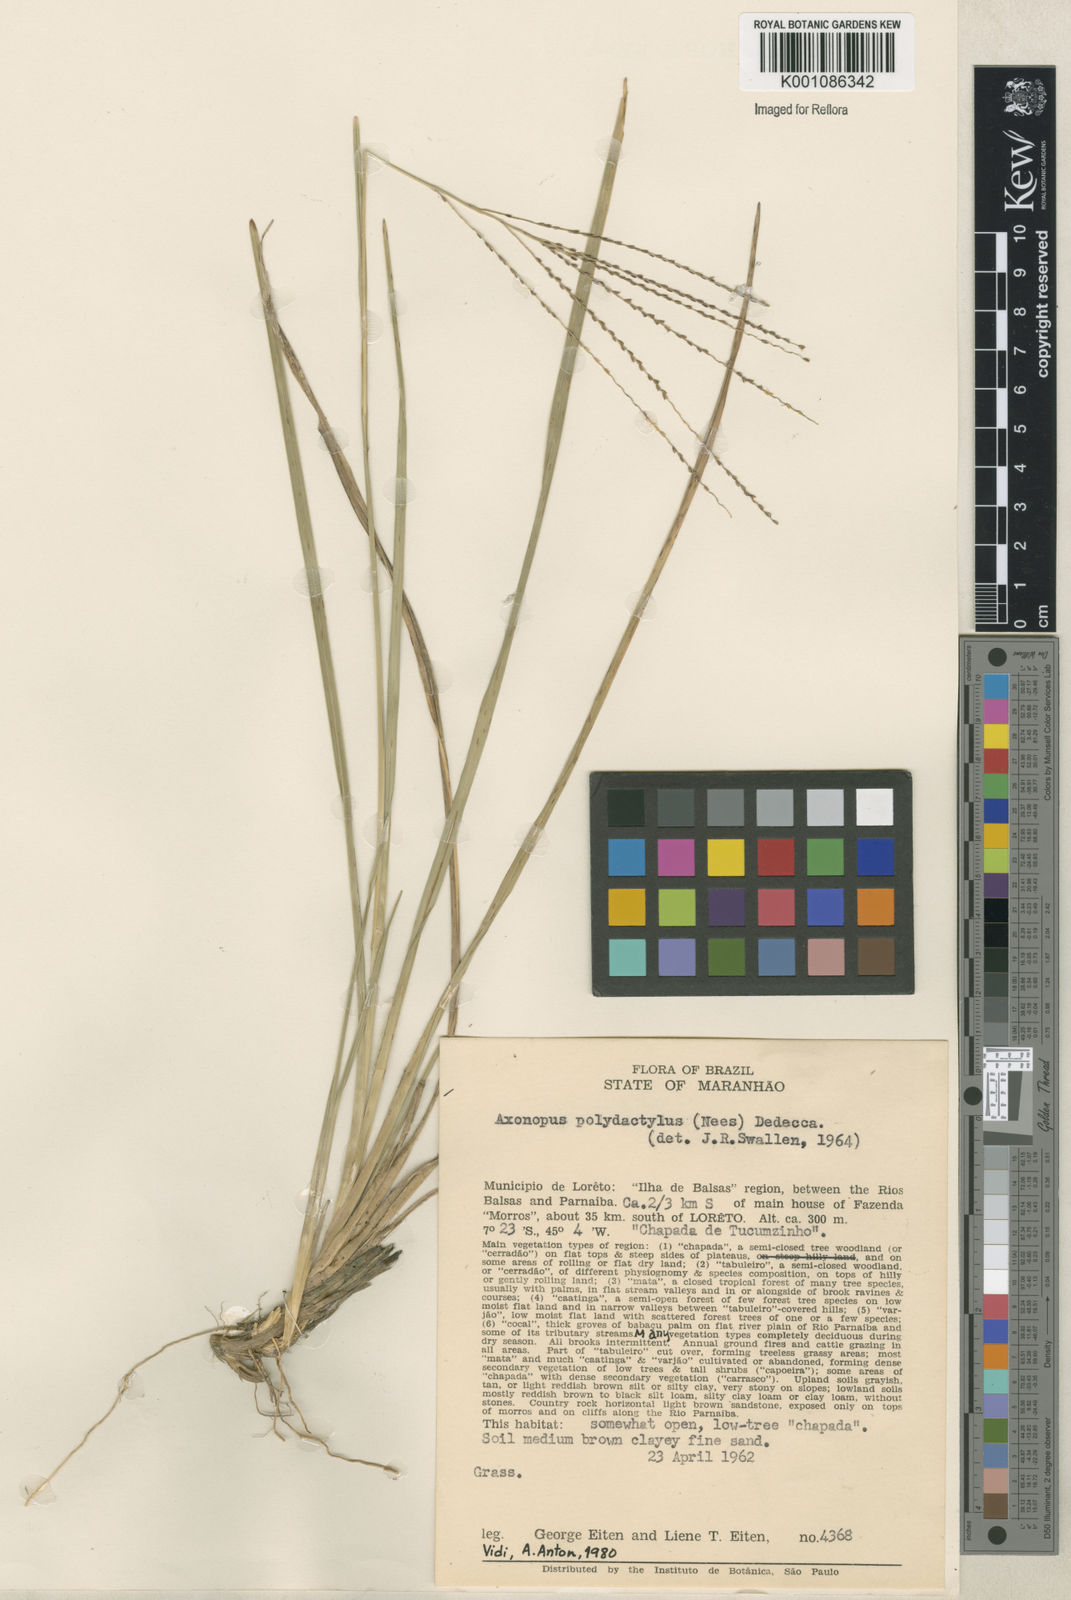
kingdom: Plantae
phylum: Tracheophyta
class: Liliopsida
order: Poales
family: Poaceae
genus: Axonopus
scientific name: Axonopus polydactylus
